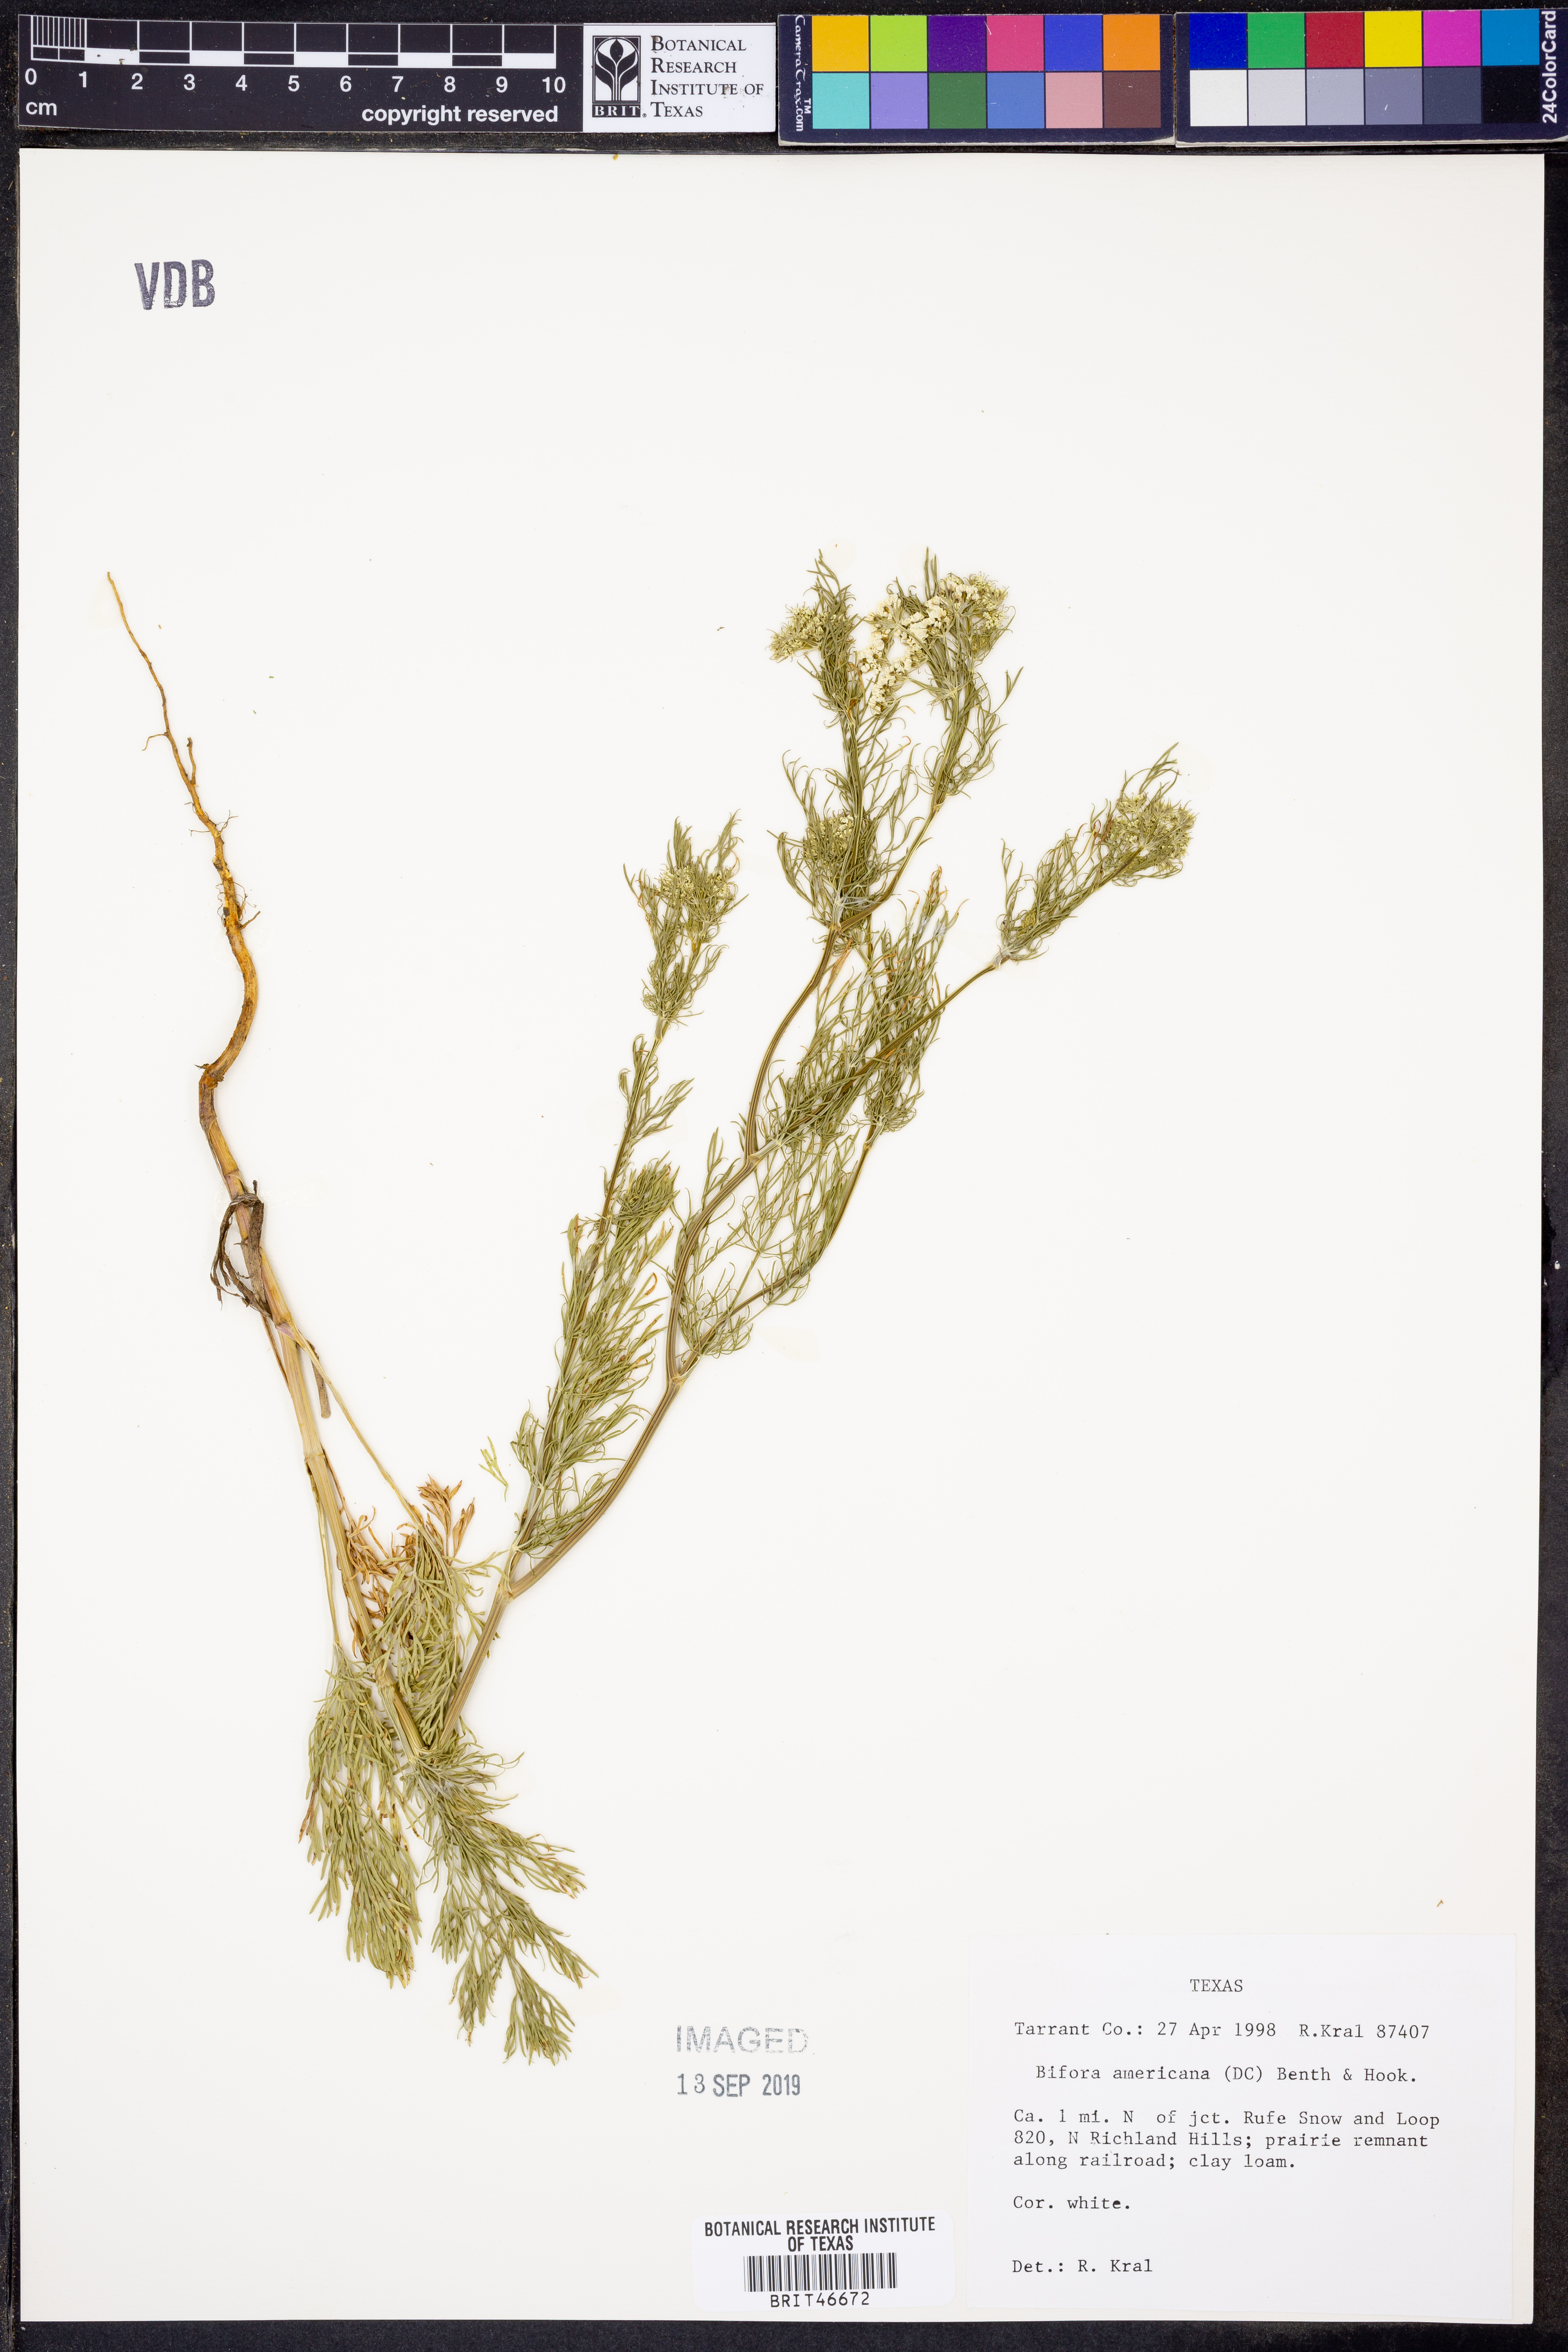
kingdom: Plantae
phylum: Tracheophyta
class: Magnoliopsida
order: Apiales
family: Apiaceae
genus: Atrema
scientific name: Atrema americanum
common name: Prairie-bishop
